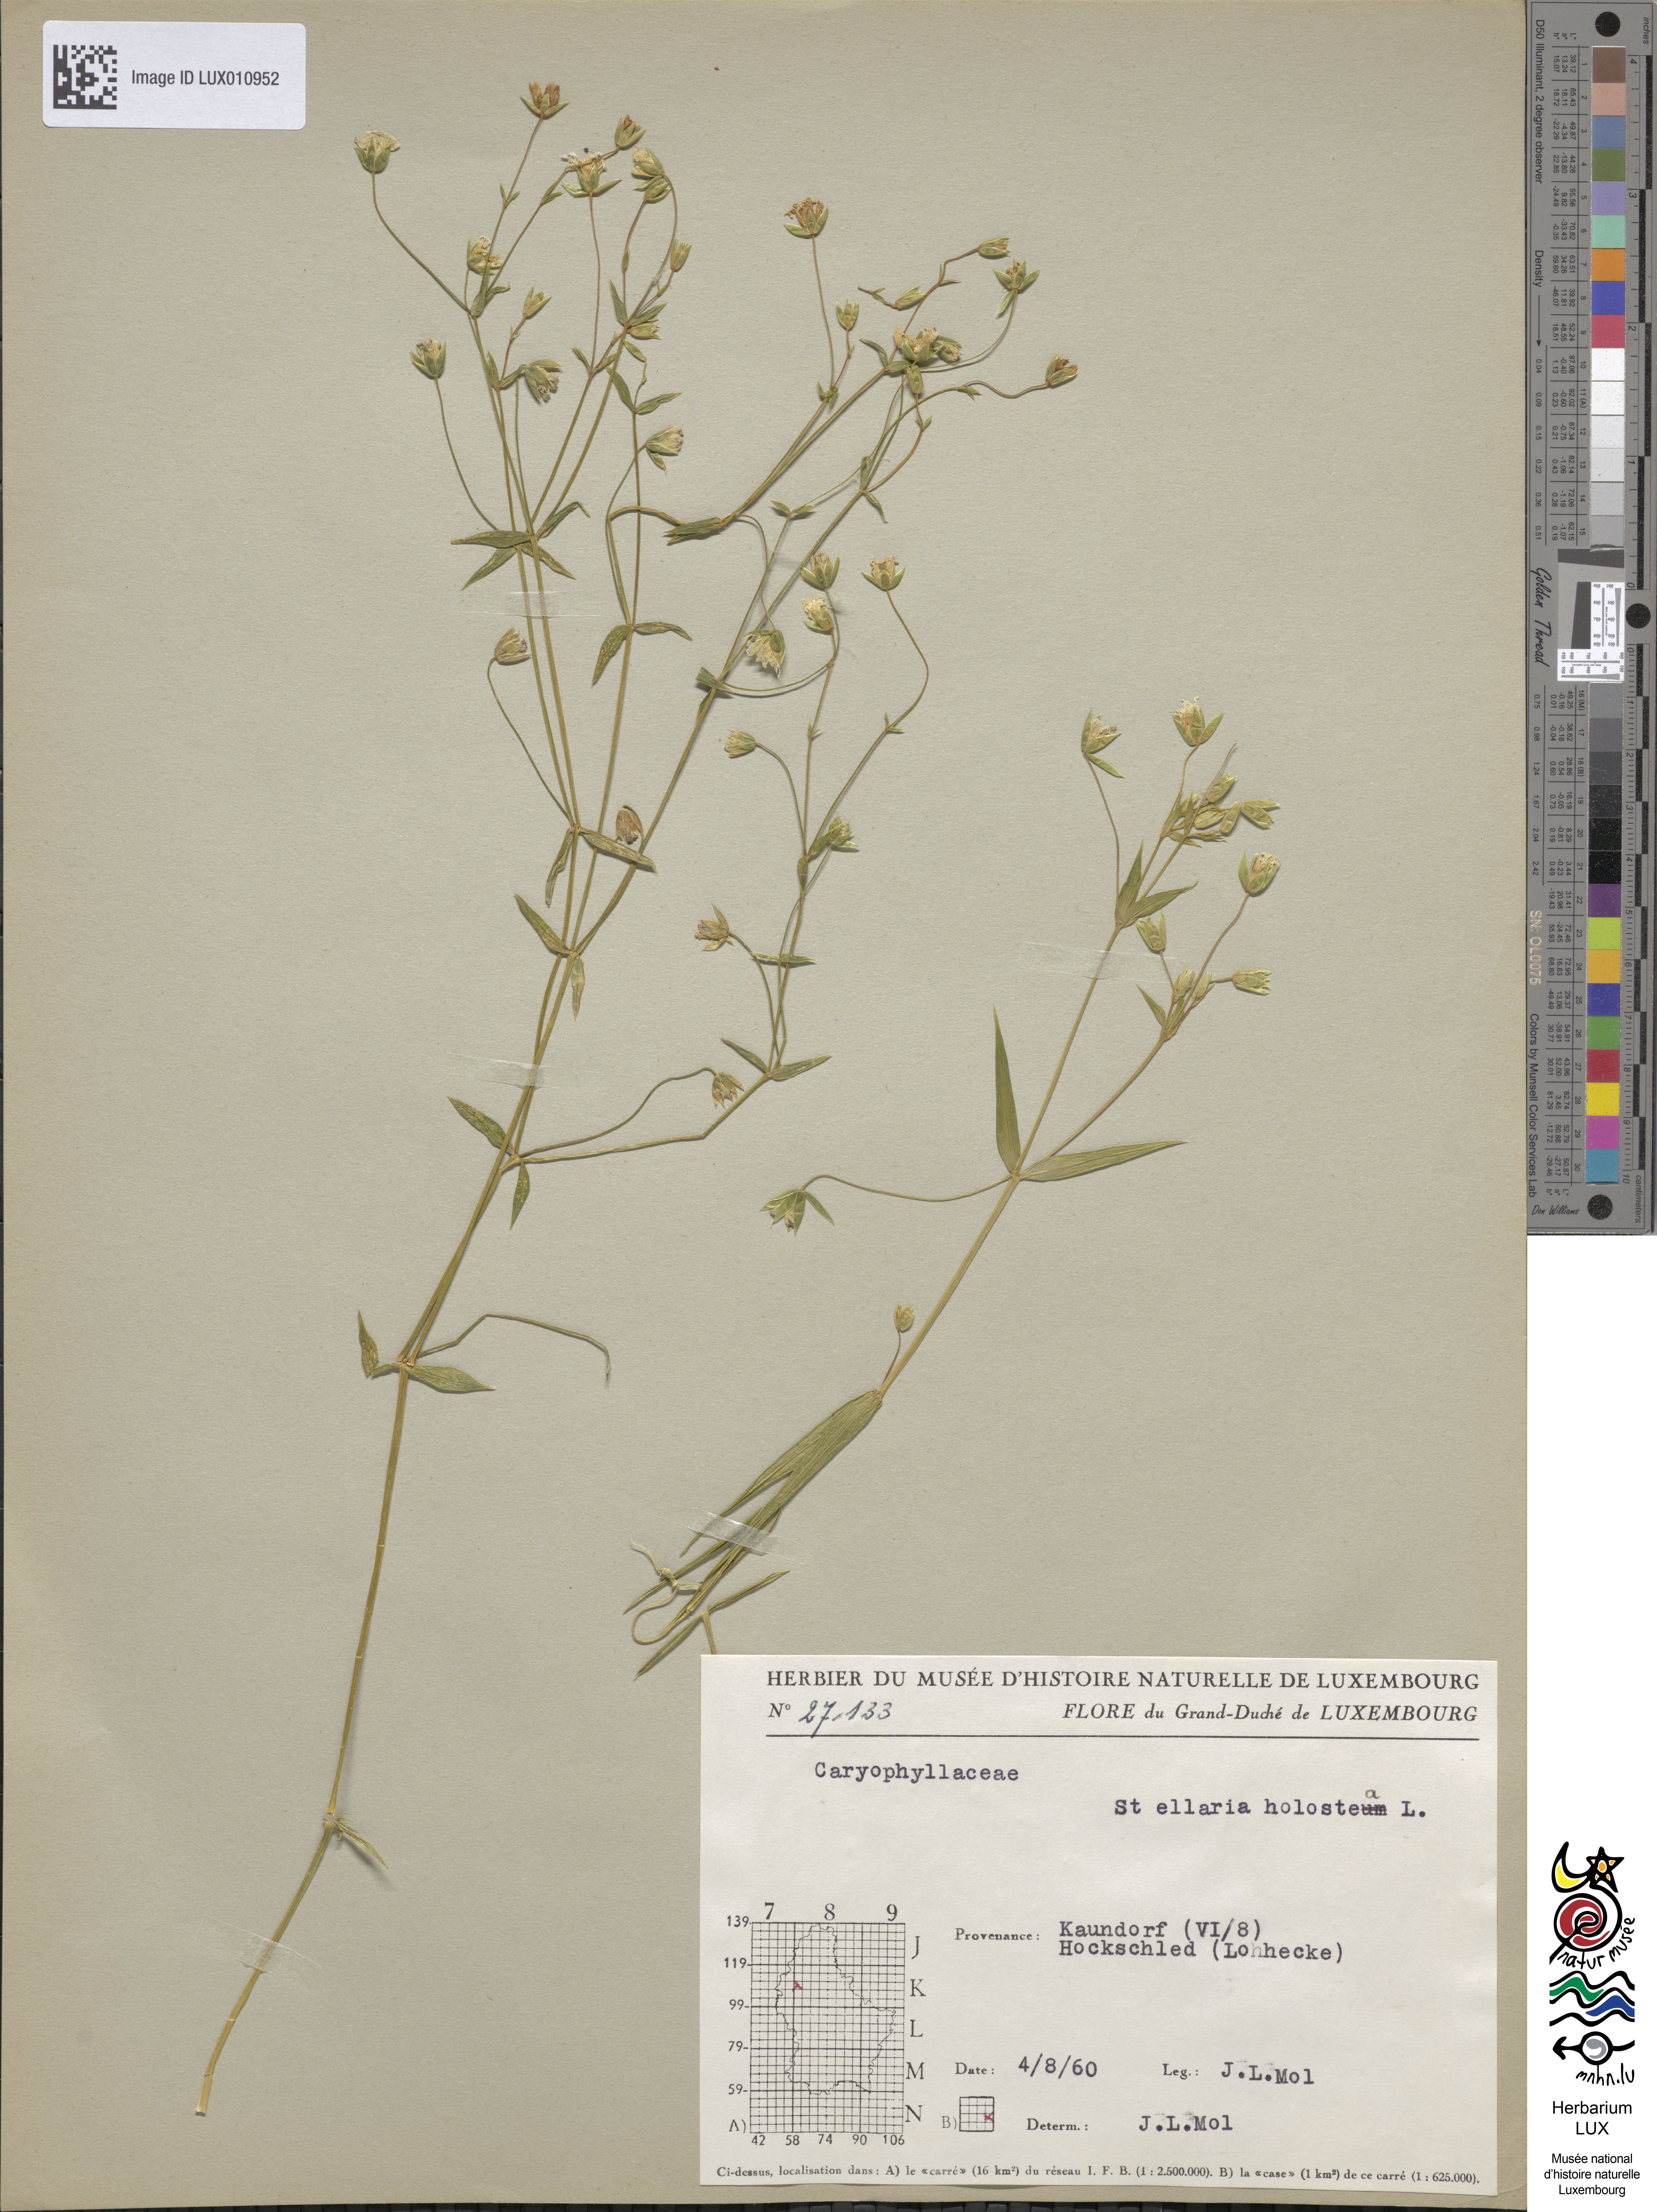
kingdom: Plantae
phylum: Tracheophyta
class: Magnoliopsida
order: Caryophyllales
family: Caryophyllaceae
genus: Rabelera
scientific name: Rabelera holostea
